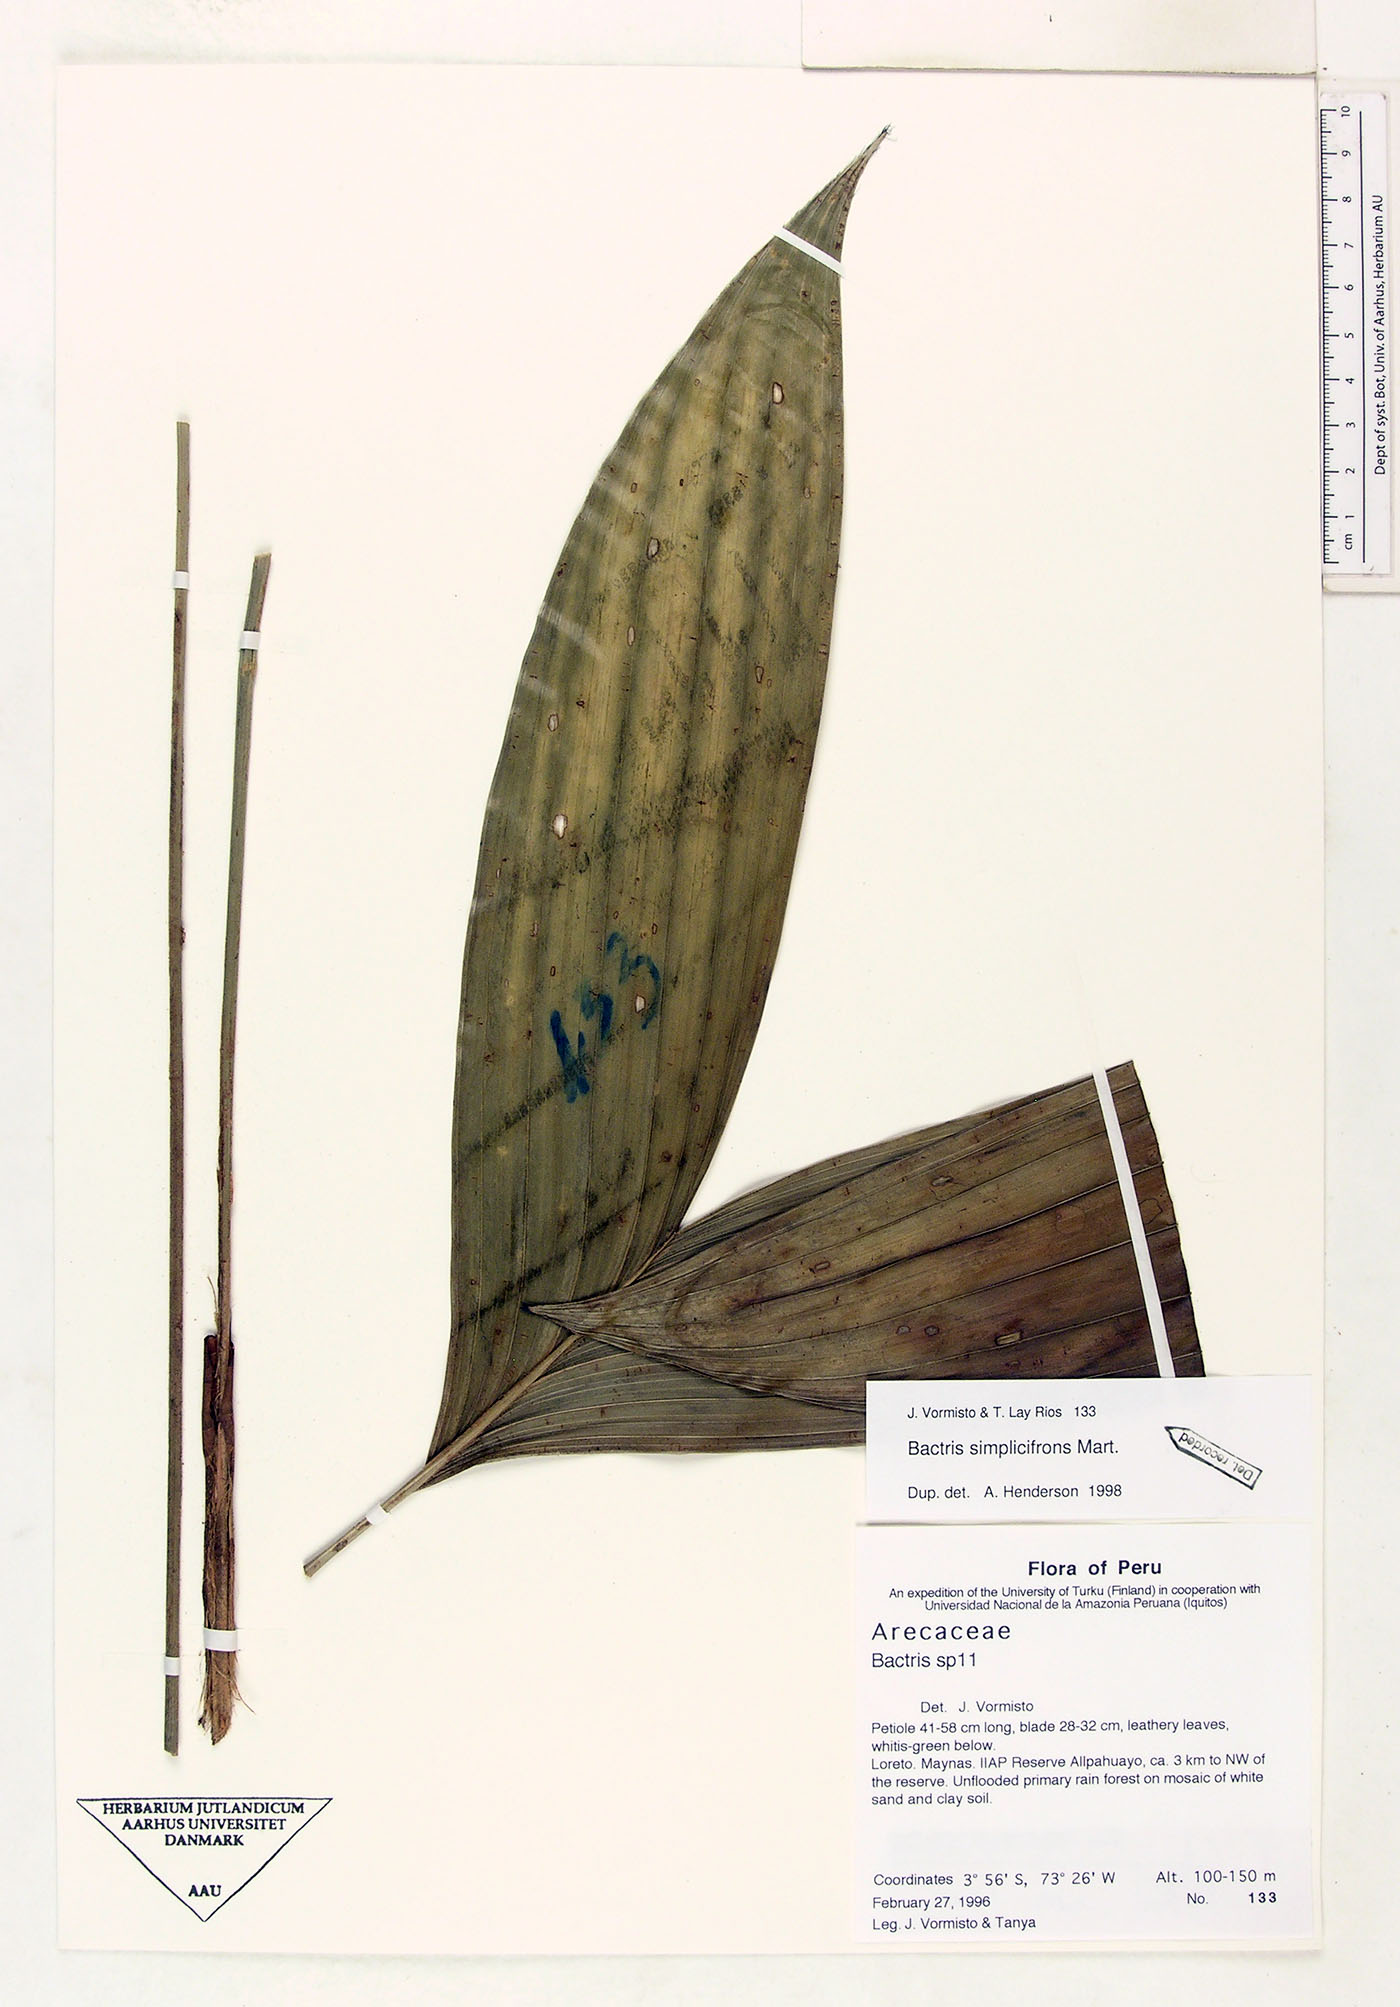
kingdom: Plantae
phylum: Tracheophyta
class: Liliopsida
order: Arecales
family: Arecaceae
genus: Bactris
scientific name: Bactris simplicifrons
